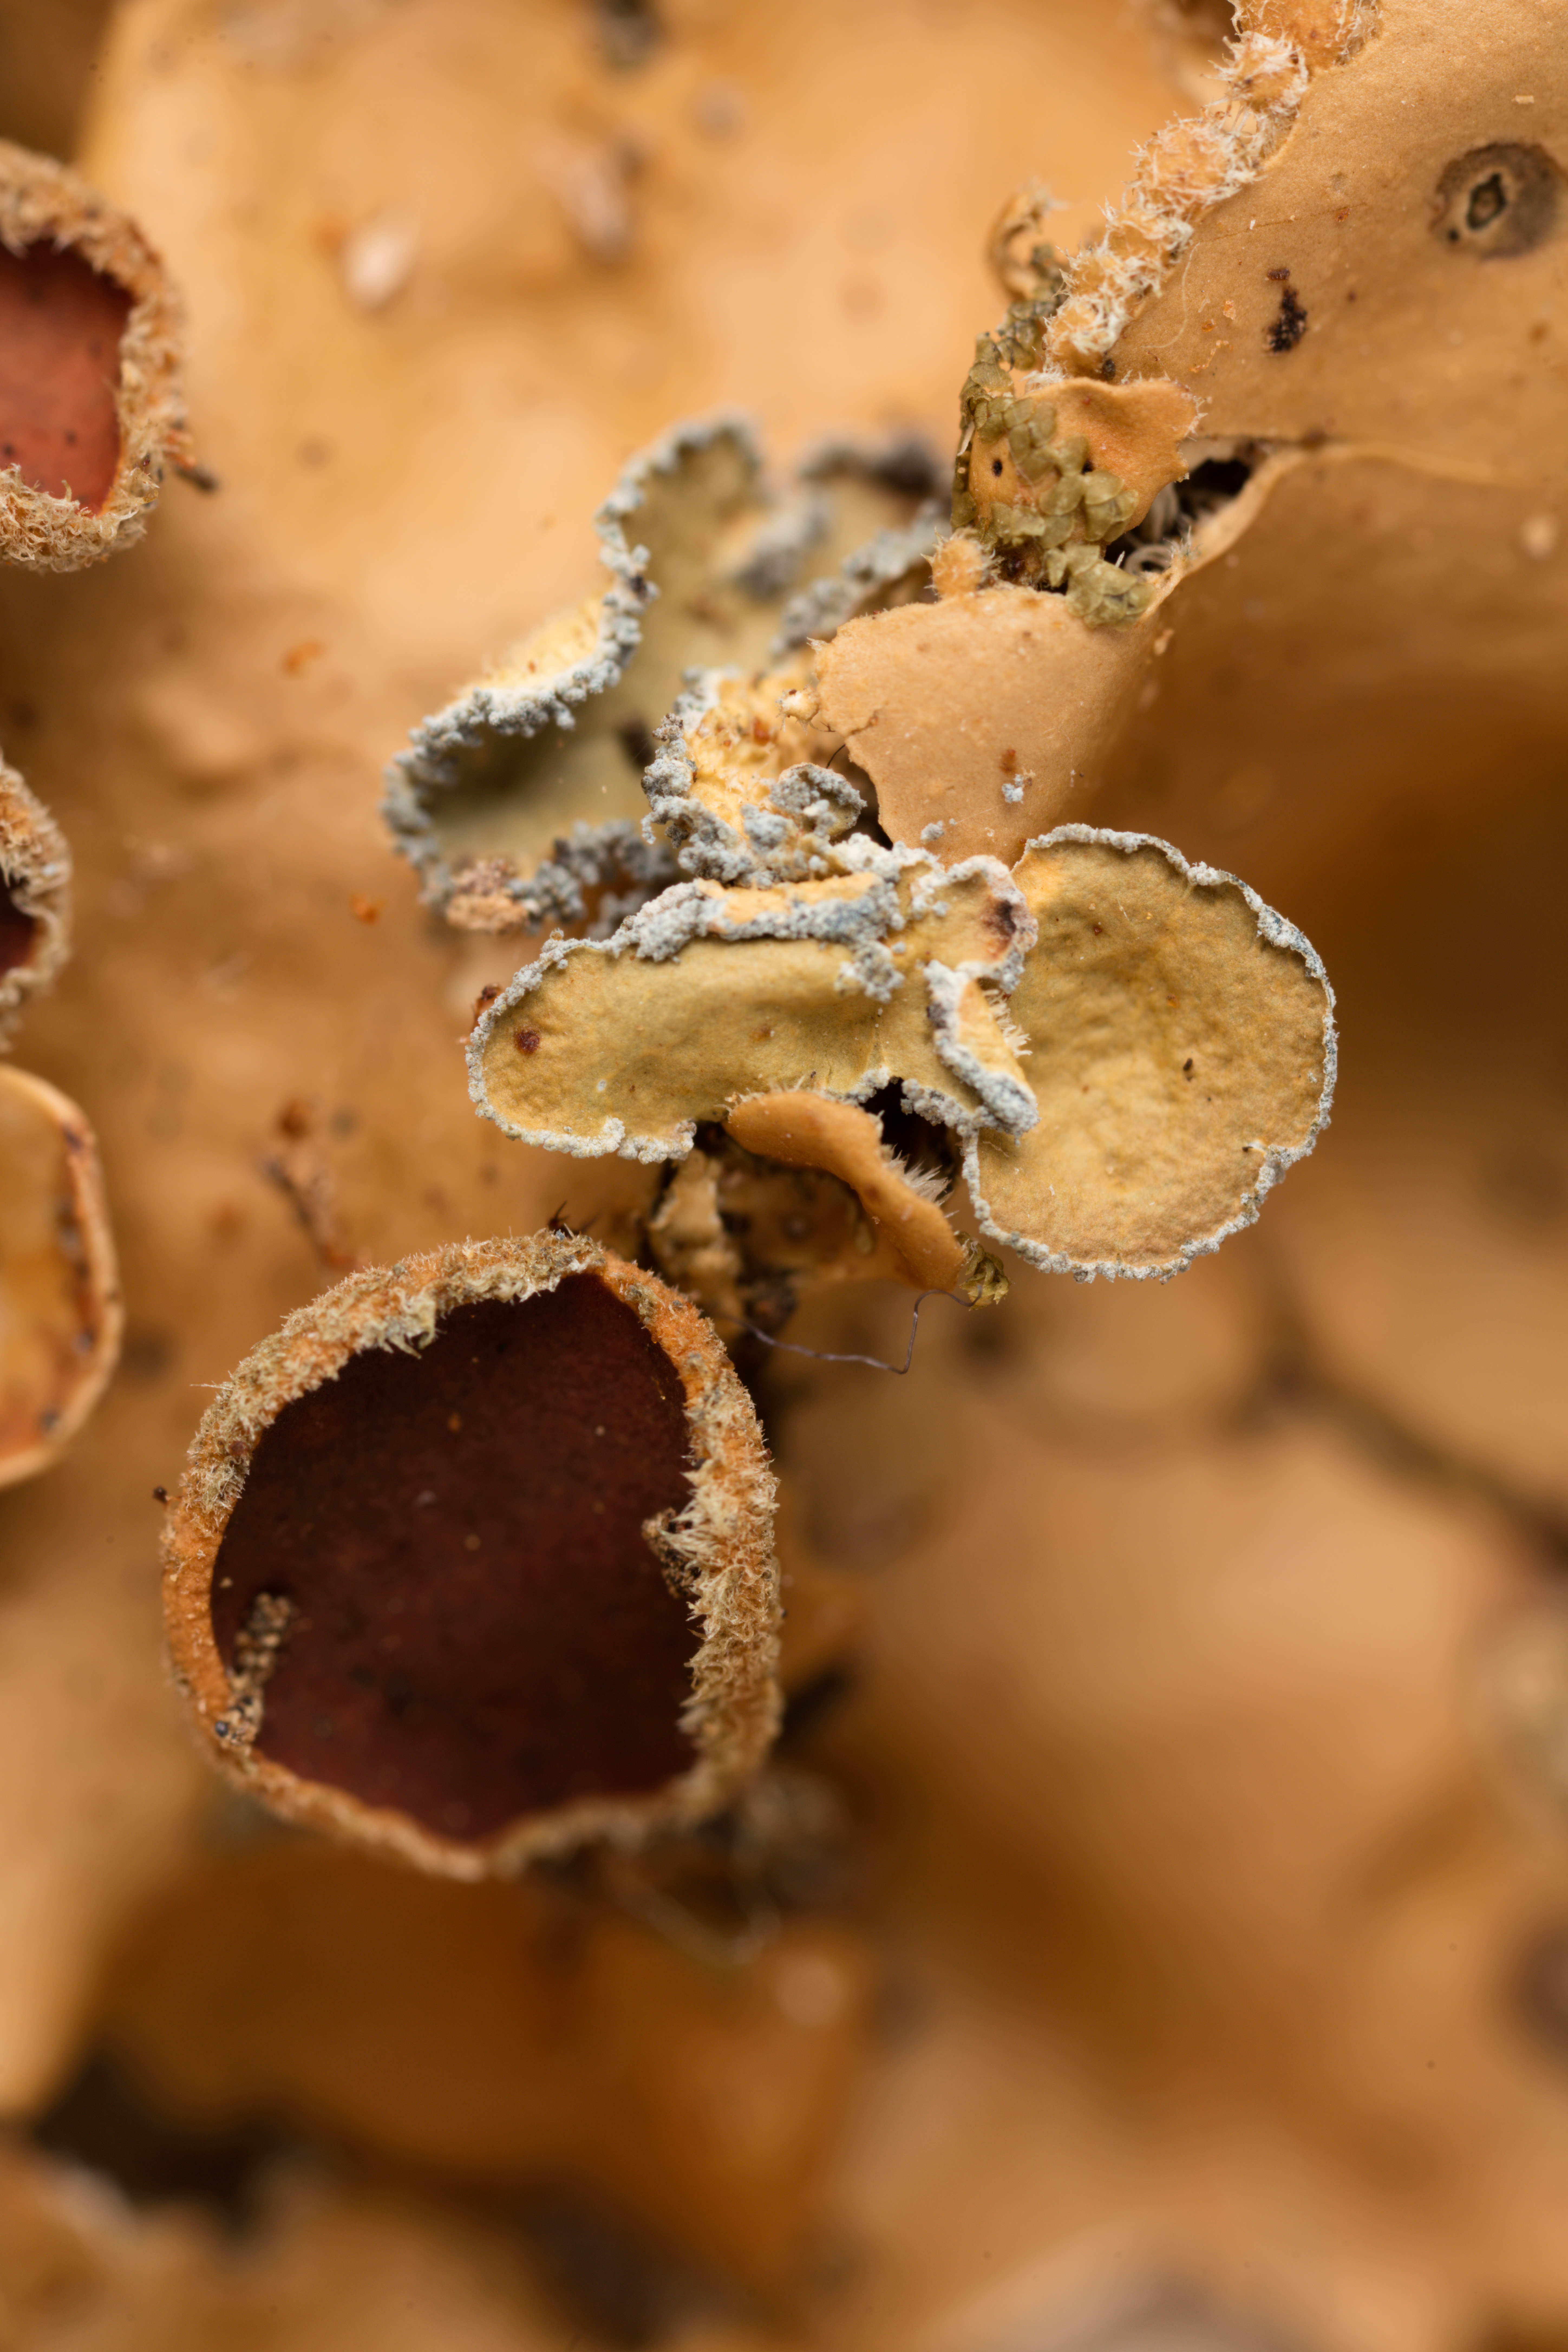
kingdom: Fungi
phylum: Ascomycota
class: Lecanoromycetes
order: Peltigerales
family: Lobariaceae
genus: Sticta
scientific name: Sticta subcaperata
